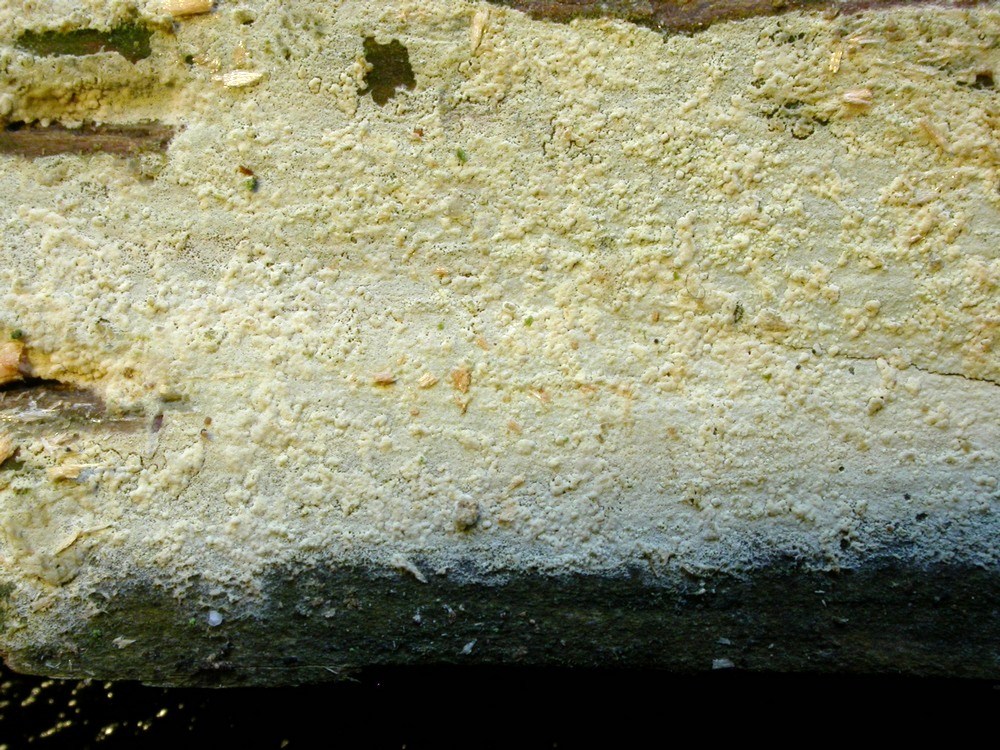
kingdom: Fungi
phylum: Basidiomycota
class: Agaricomycetes
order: Hymenochaetales
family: Hyphodontiaceae
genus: Hyphodontia
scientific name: Hyphodontia pallidula
